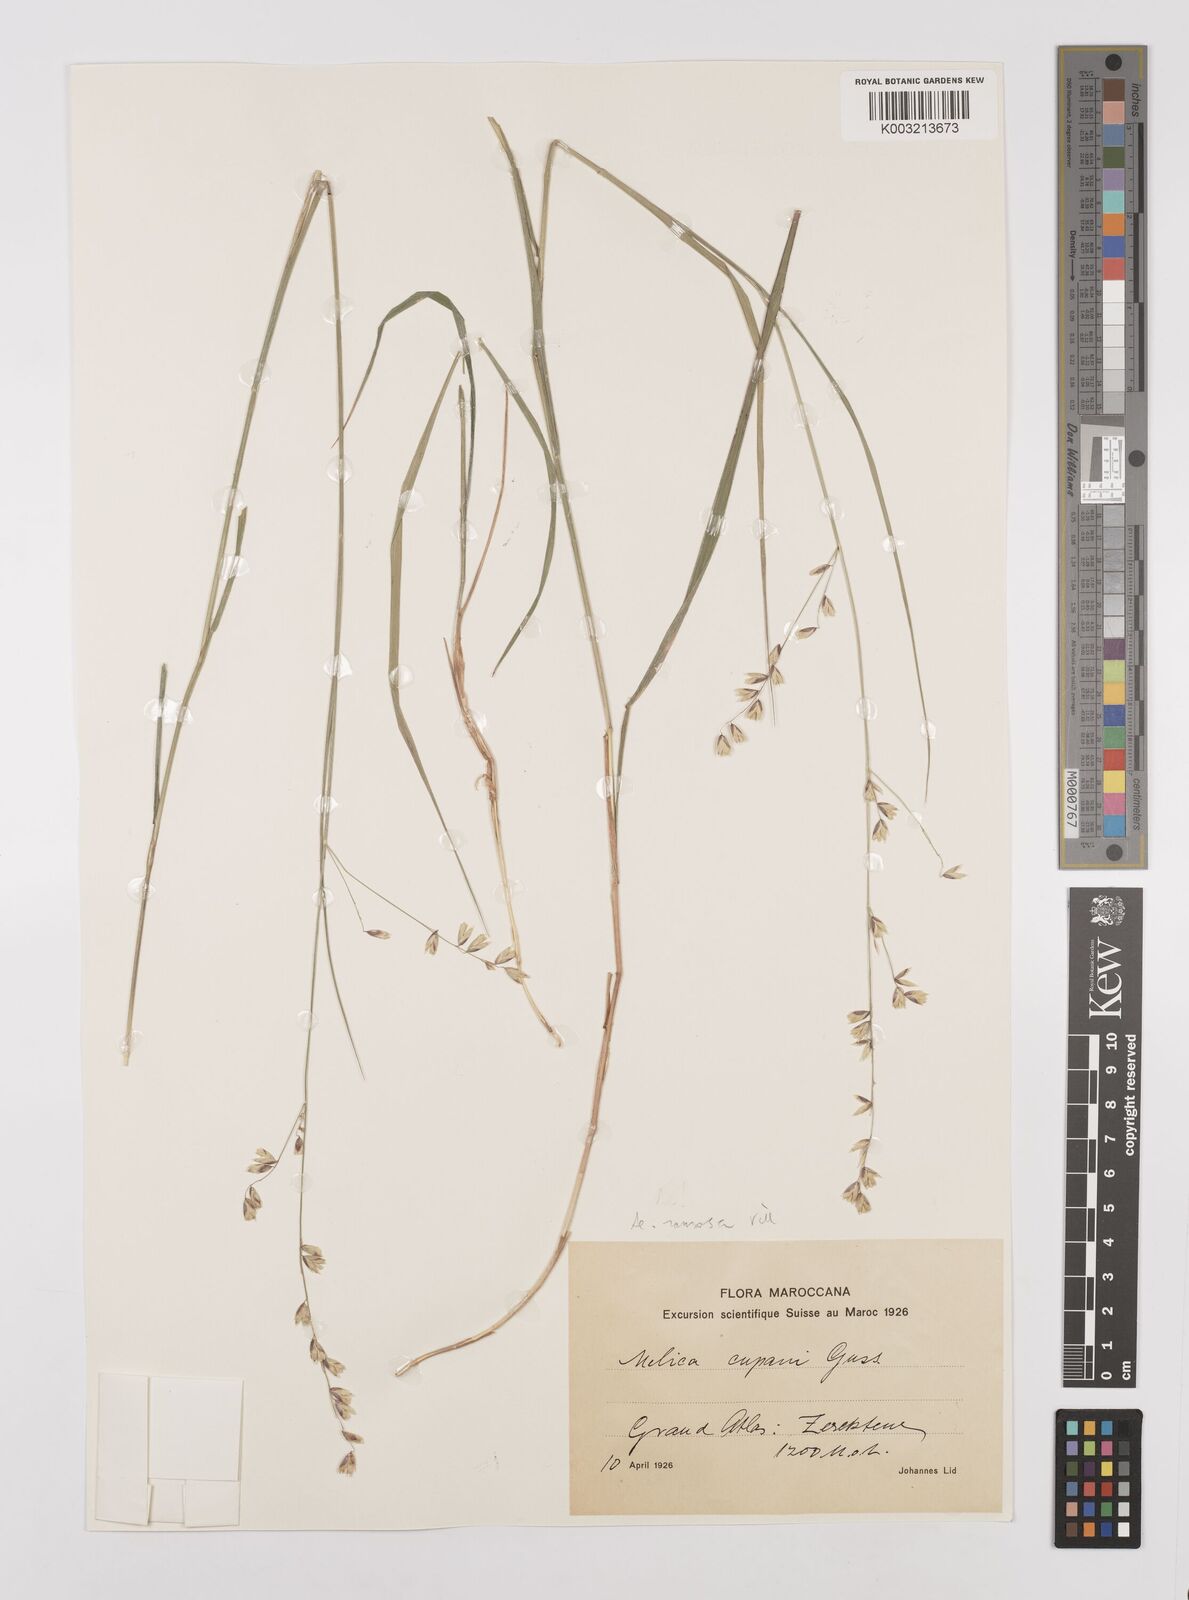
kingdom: Plantae
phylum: Tracheophyta
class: Liliopsida
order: Poales
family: Poaceae
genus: Melica
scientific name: Melica minuta
